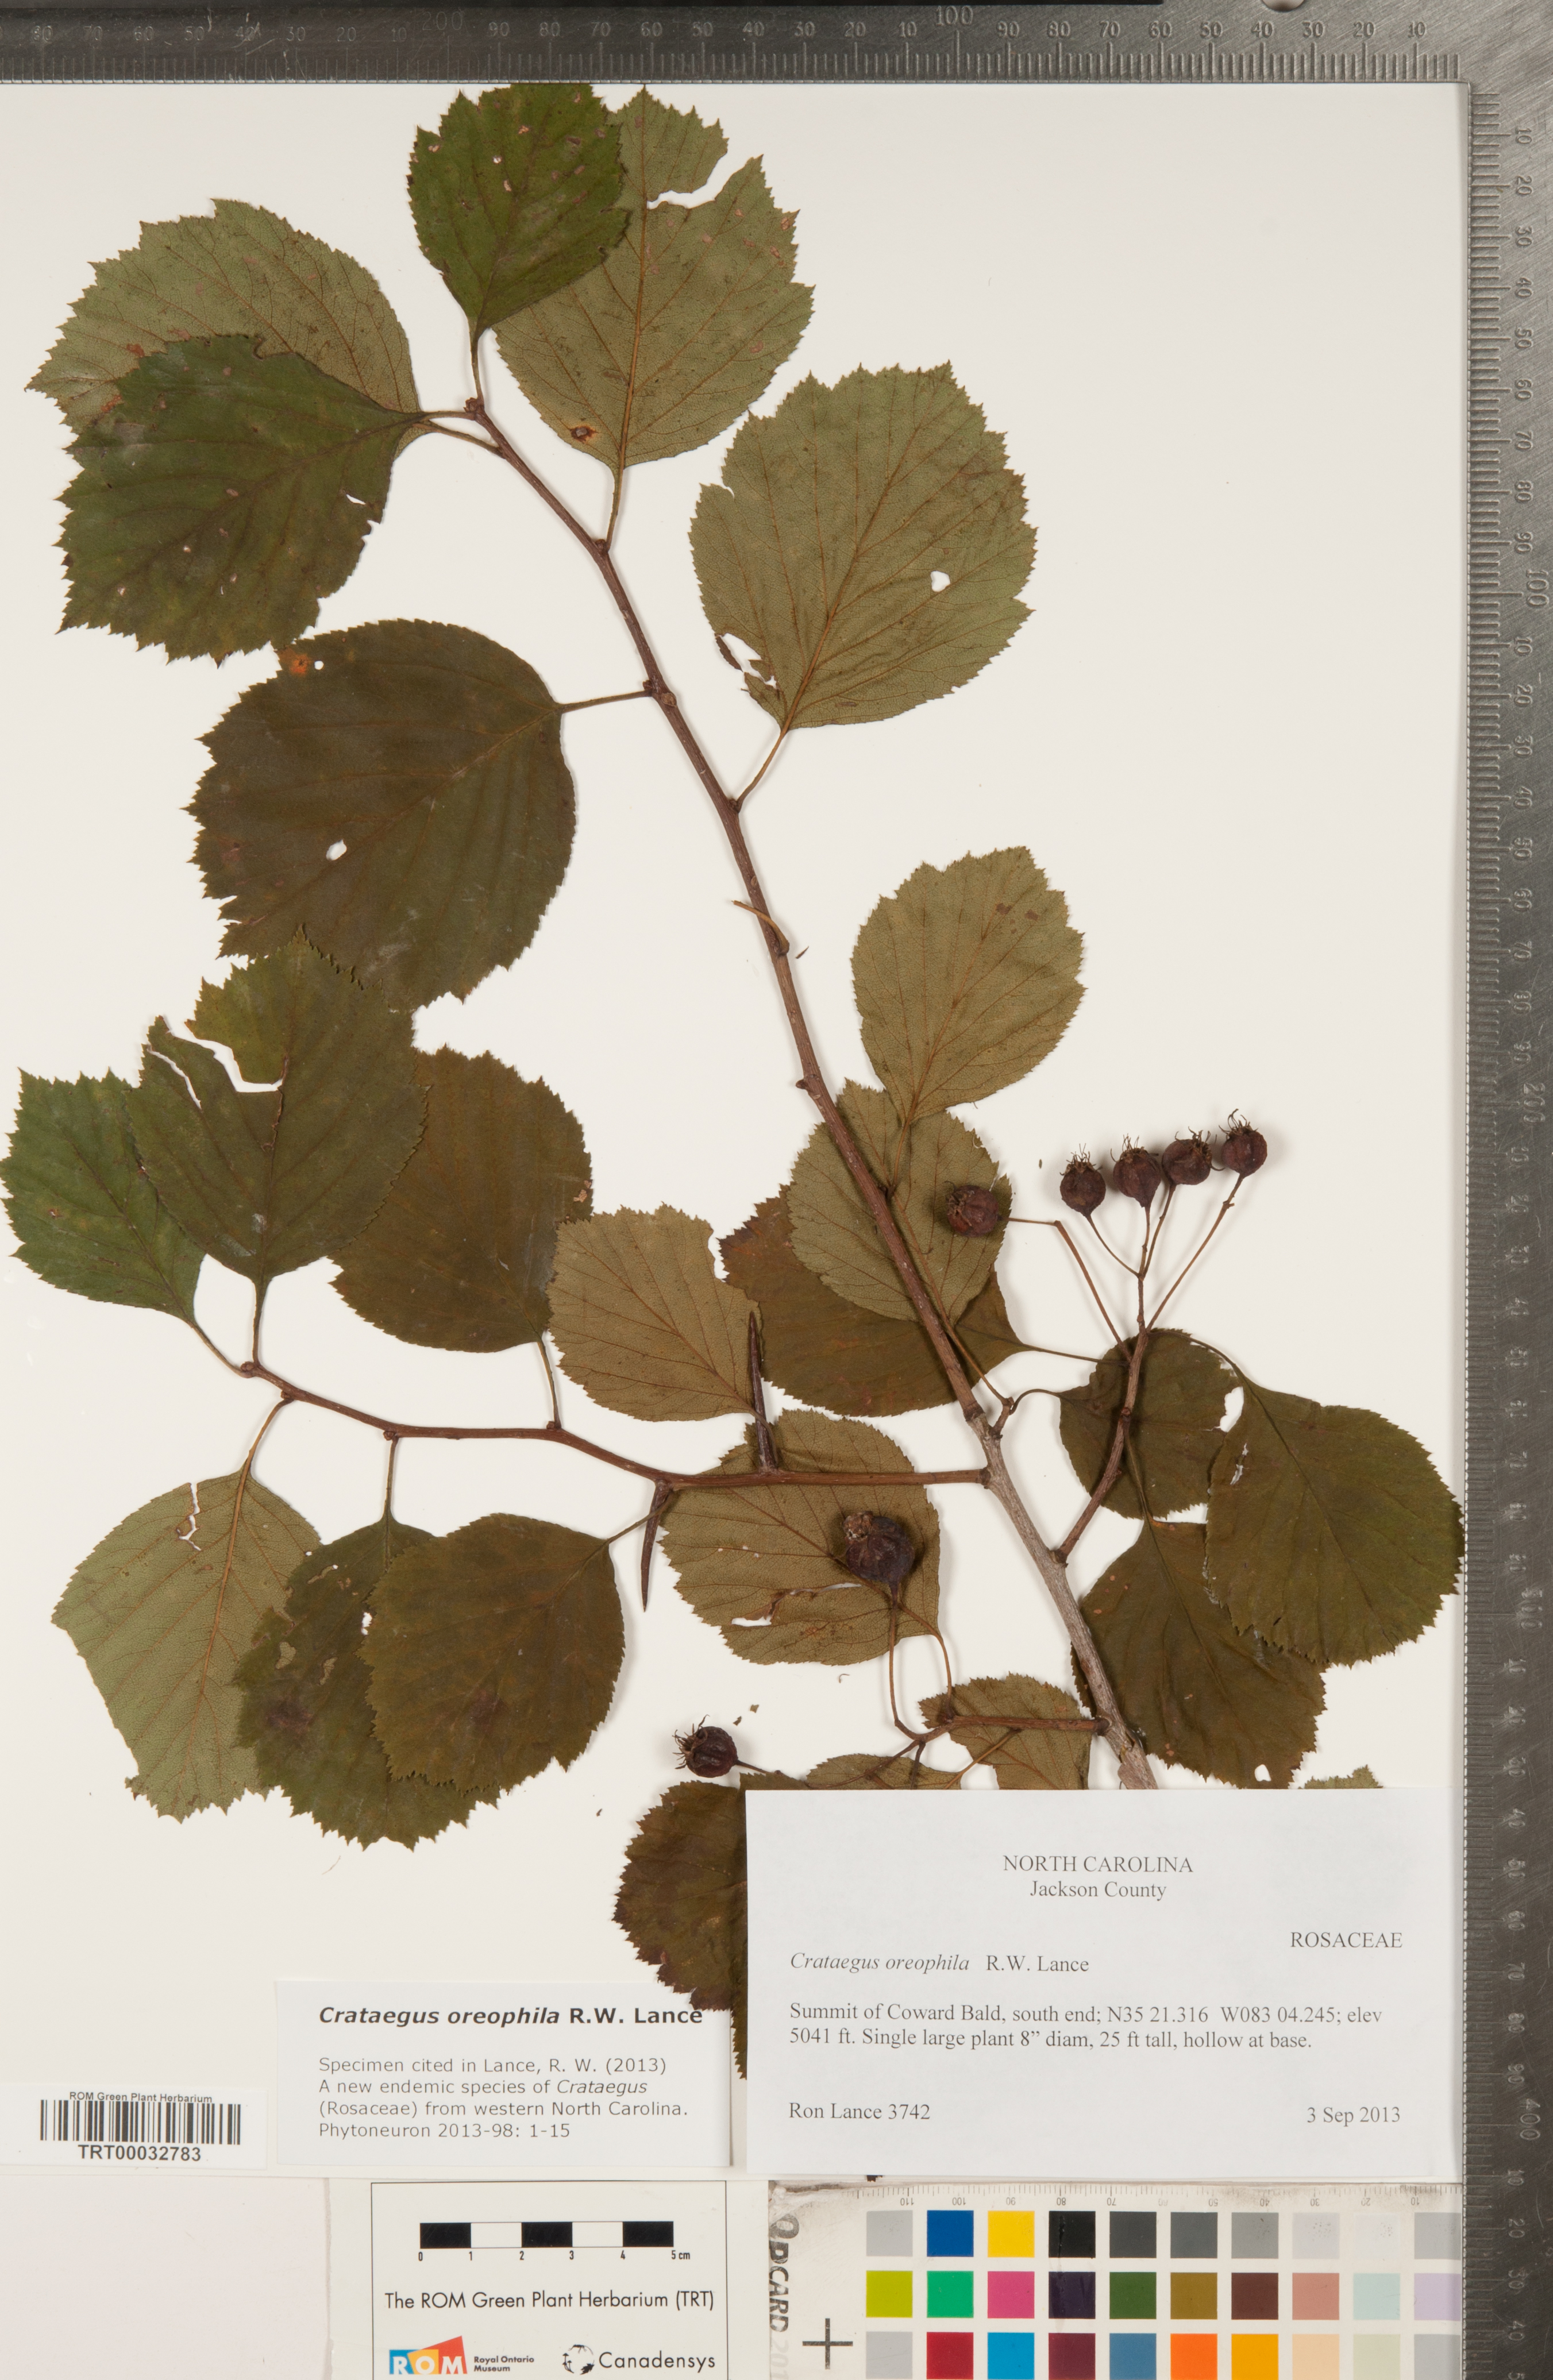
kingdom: Plantae
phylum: Tracheophyta
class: Magnoliopsida
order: Rosales
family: Rosaceae
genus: Crataegus
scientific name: Crataegus oreophila
